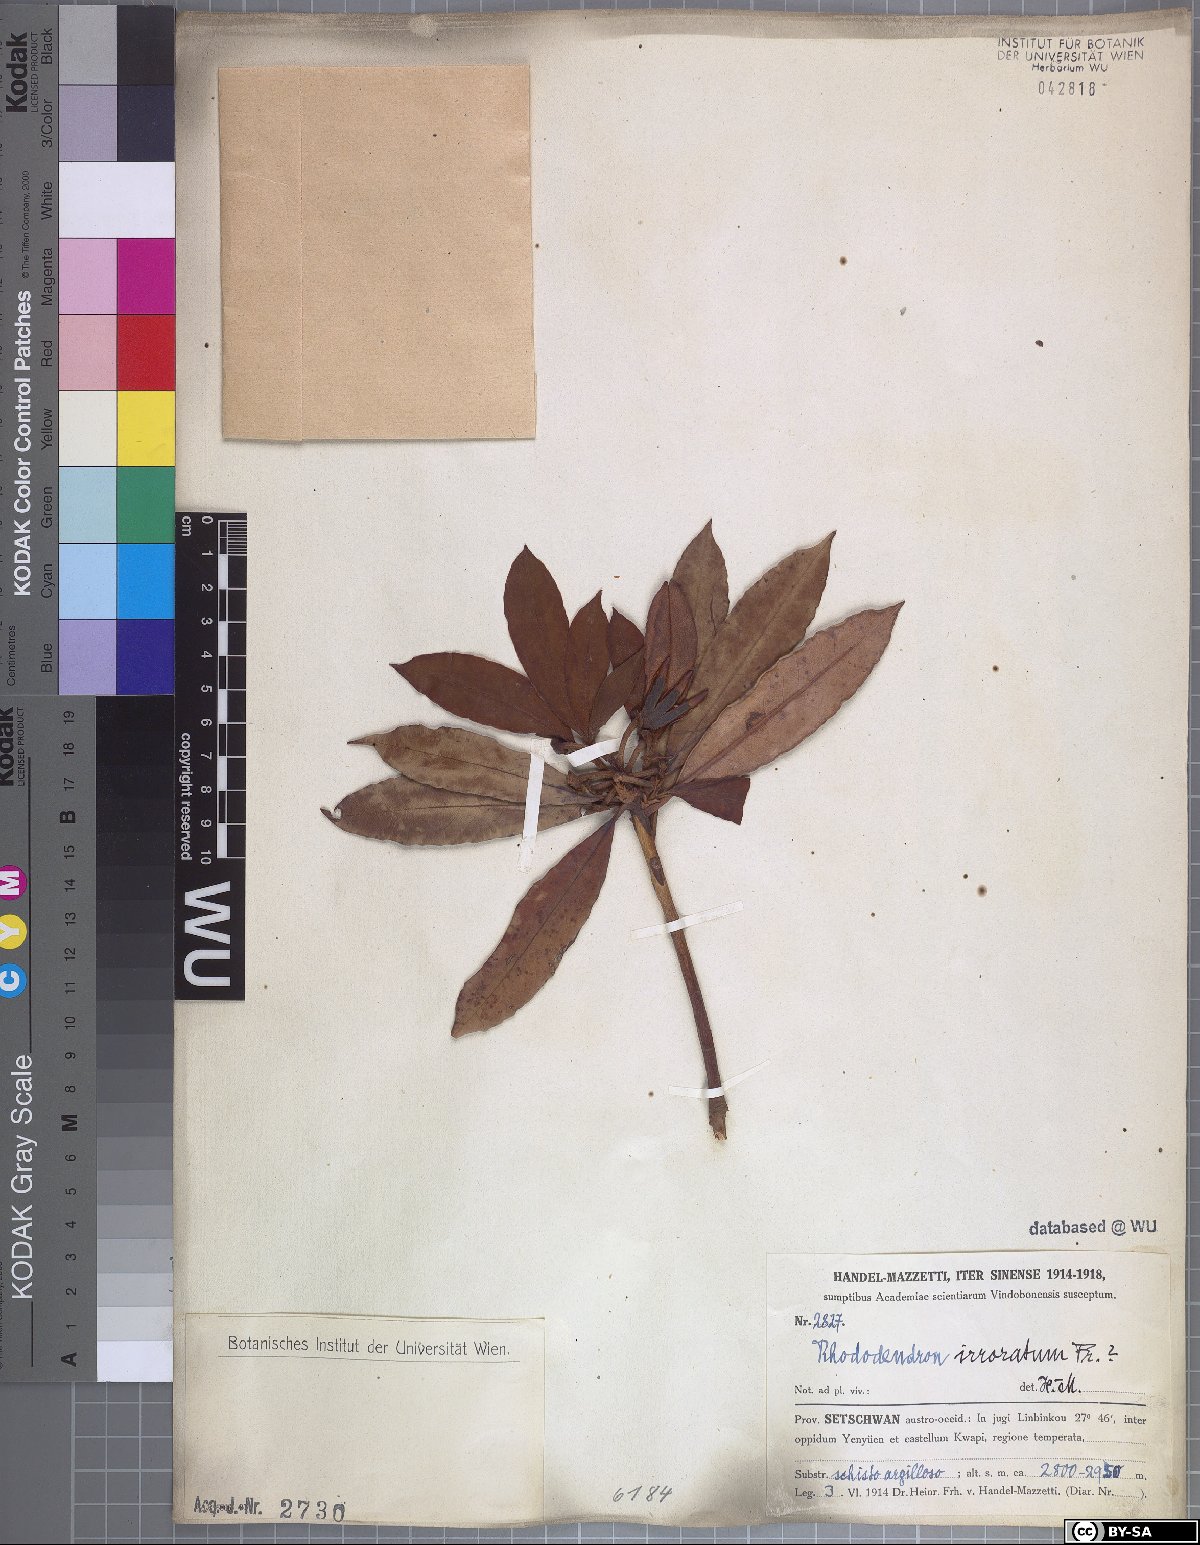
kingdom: Plantae
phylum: Tracheophyta
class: Magnoliopsida
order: Ericales
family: Ericaceae
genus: Rhododendron
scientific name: Rhododendron irroratum
